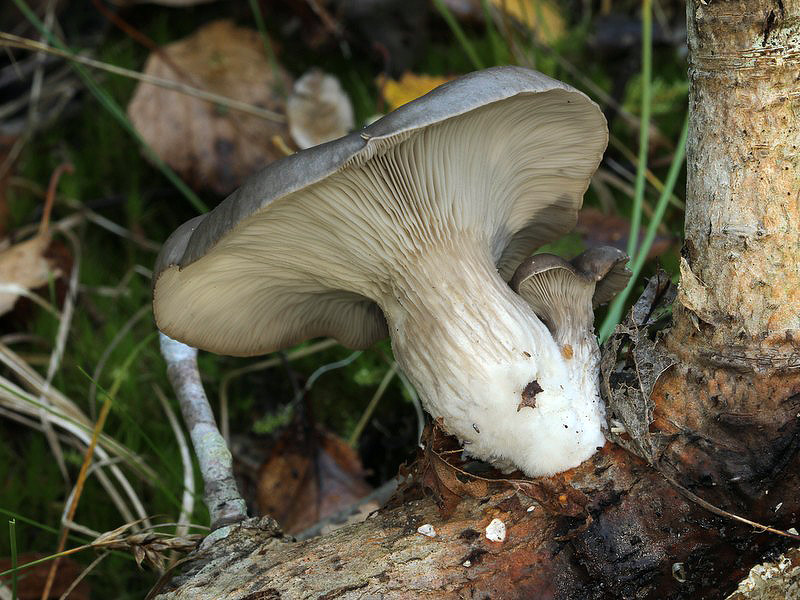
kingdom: Fungi
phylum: Basidiomycota
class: Agaricomycetes
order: Agaricales
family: Pleurotaceae
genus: Pleurotus
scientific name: Pleurotus ostreatus
